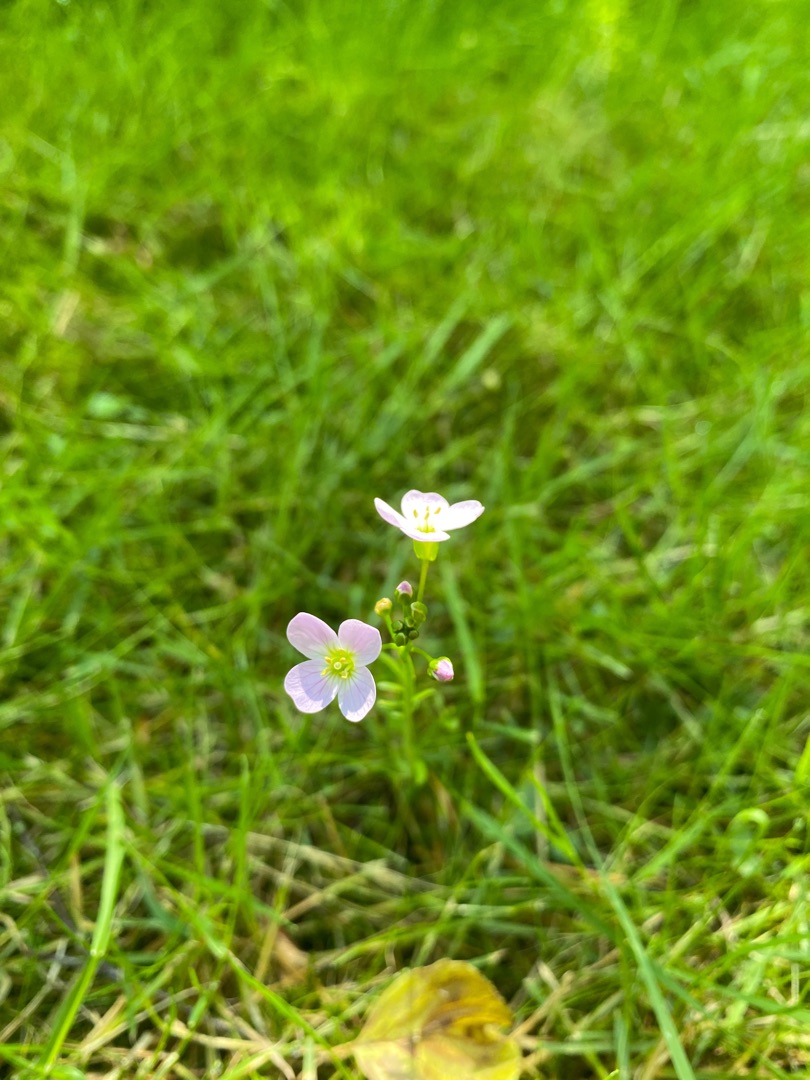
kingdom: Plantae
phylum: Tracheophyta
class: Magnoliopsida
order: Brassicales
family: Brassicaceae
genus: Cardamine
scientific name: Cardamine pratensis
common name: Engkarse
